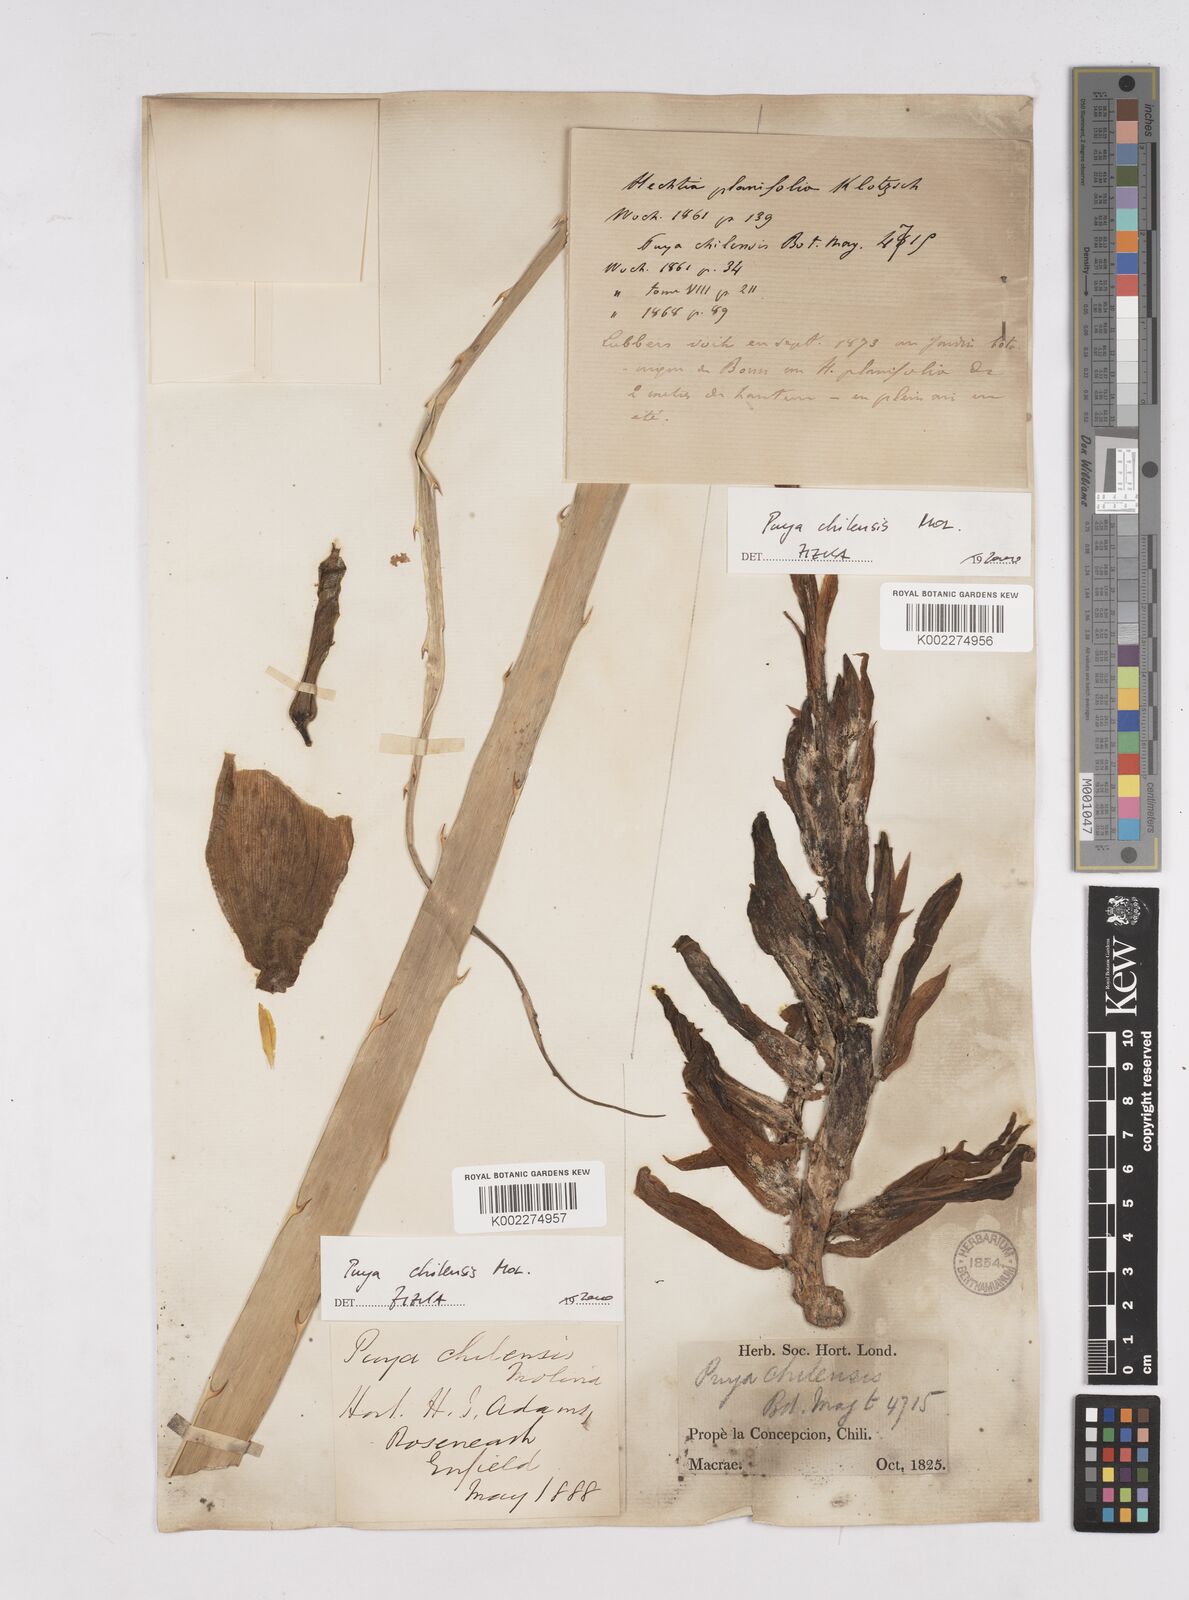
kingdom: Plantae
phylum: Tracheophyta
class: Liliopsida
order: Poales
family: Bromeliaceae
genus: Puya
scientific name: Puya chilensis
